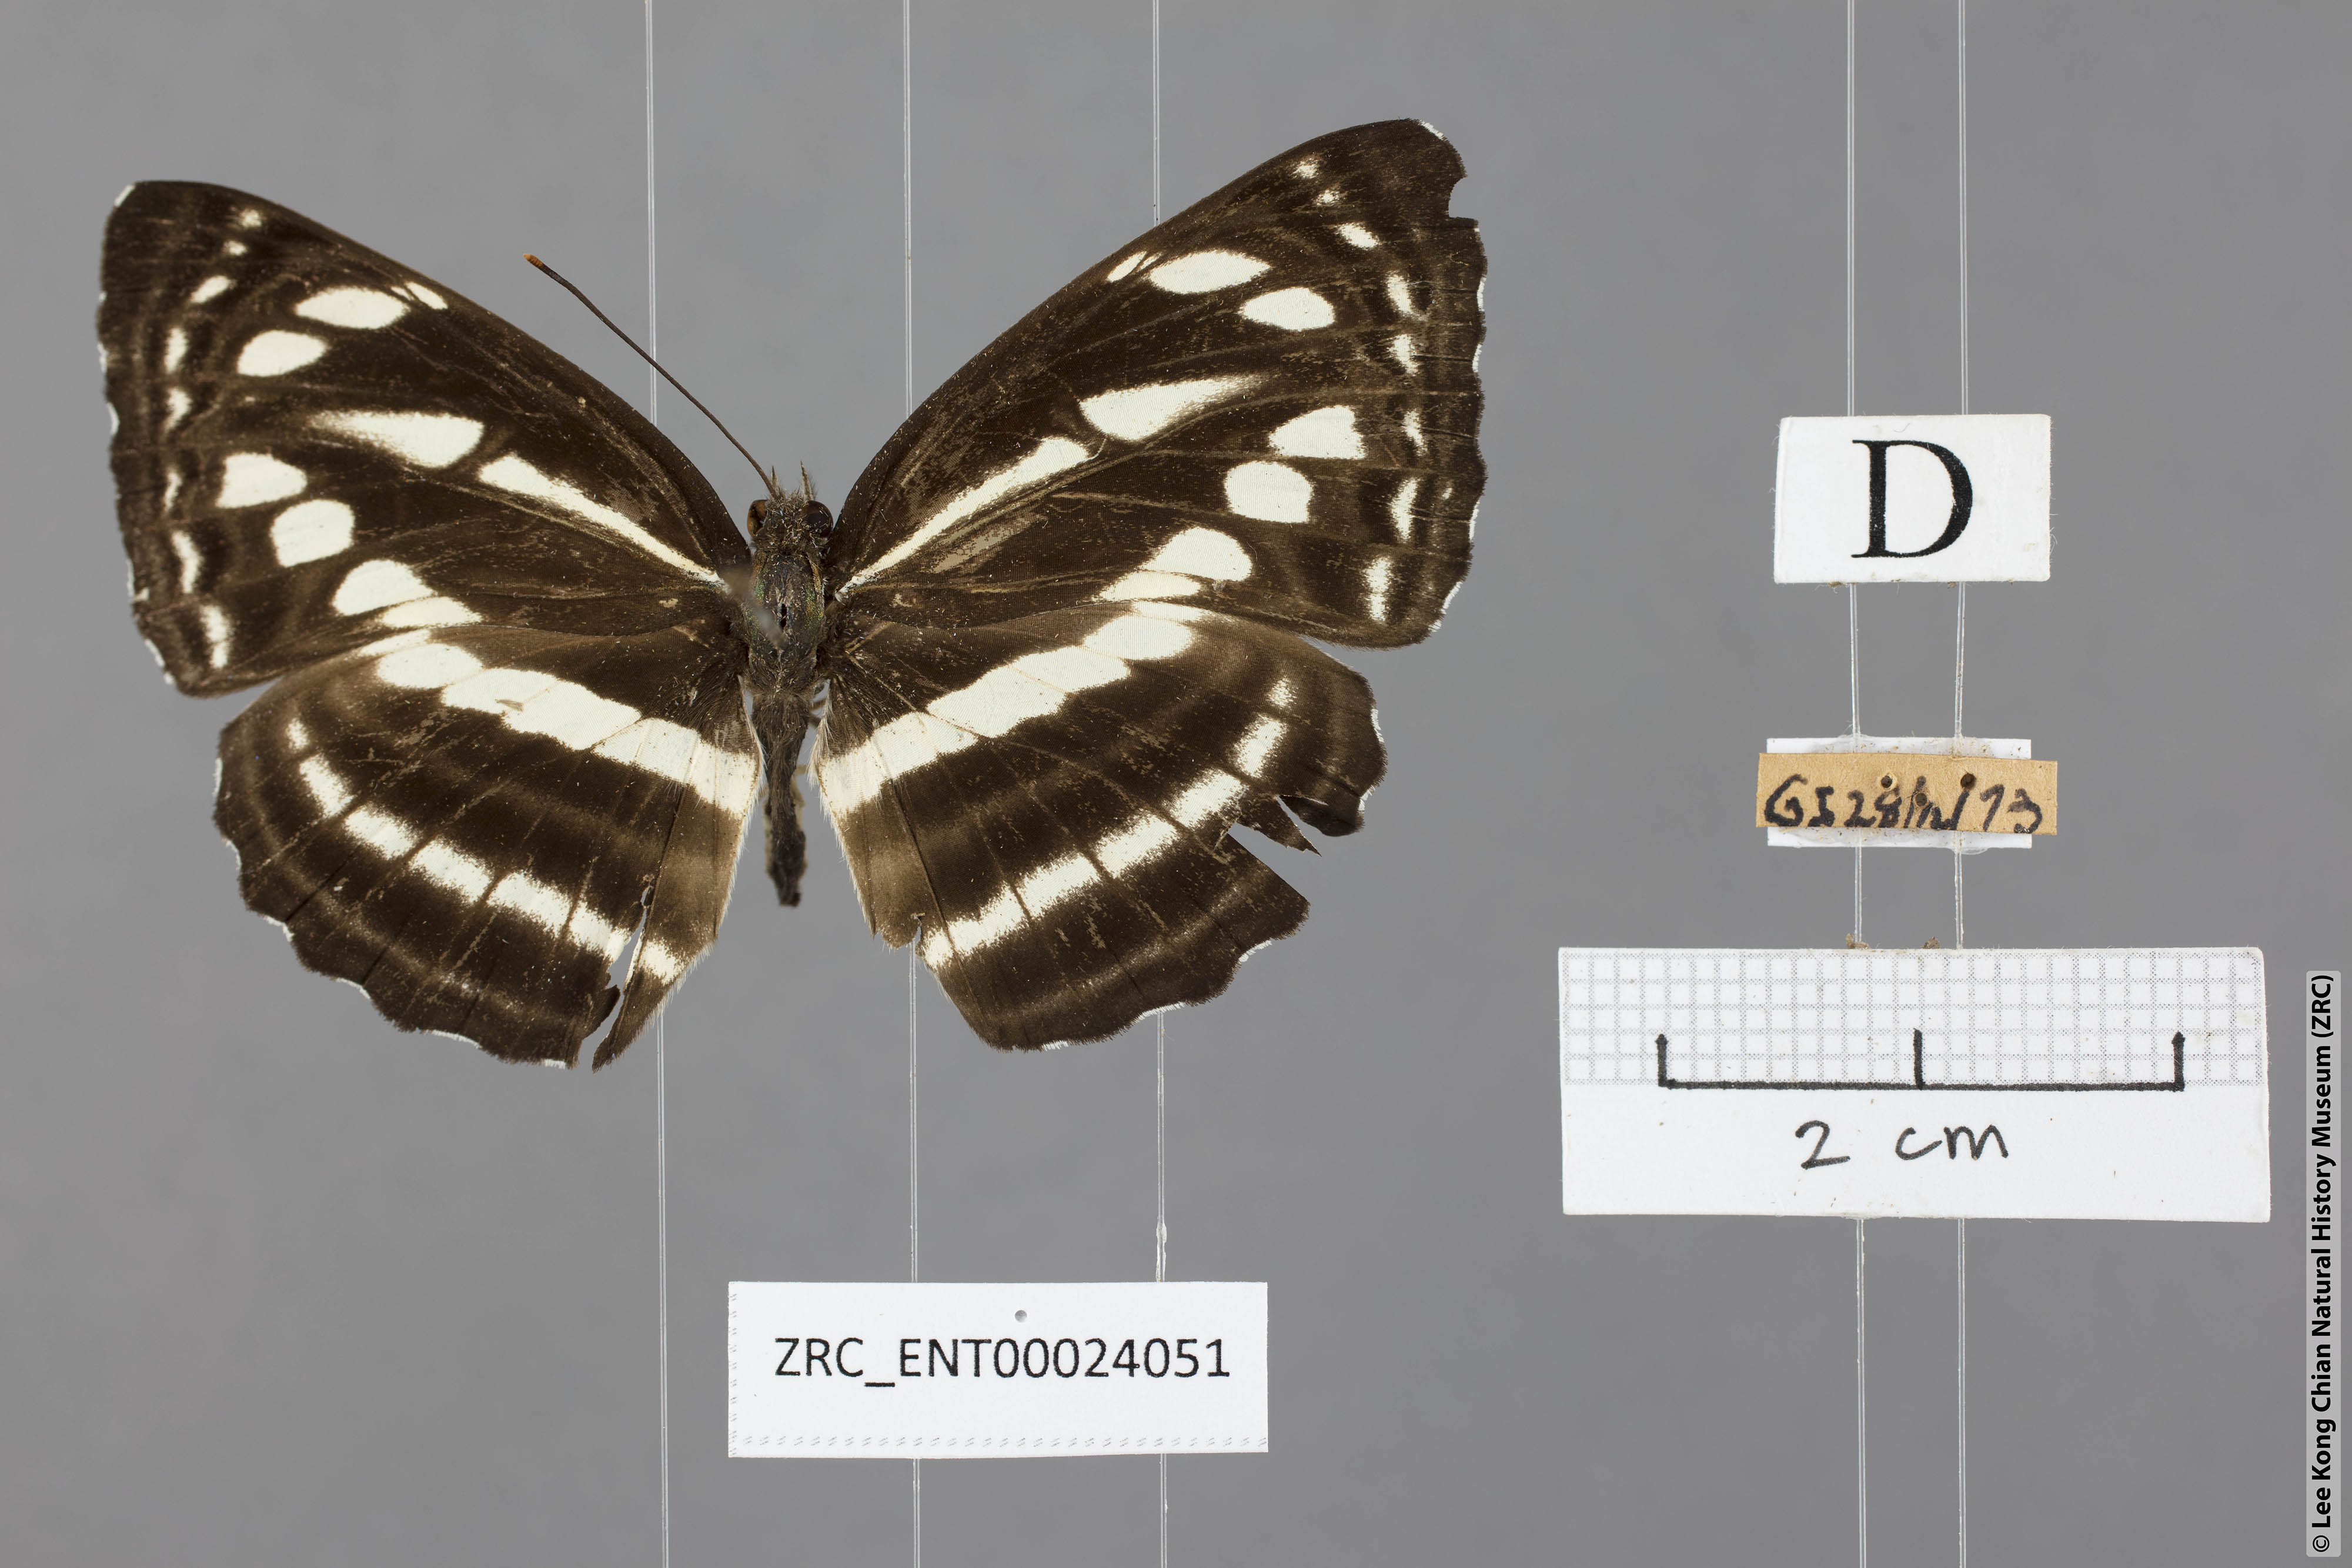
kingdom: Animalia
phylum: Arthropoda
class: Insecta
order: Lepidoptera
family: Nymphalidae
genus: Neptis
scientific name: Neptis nata
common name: Sullied brown sailer
